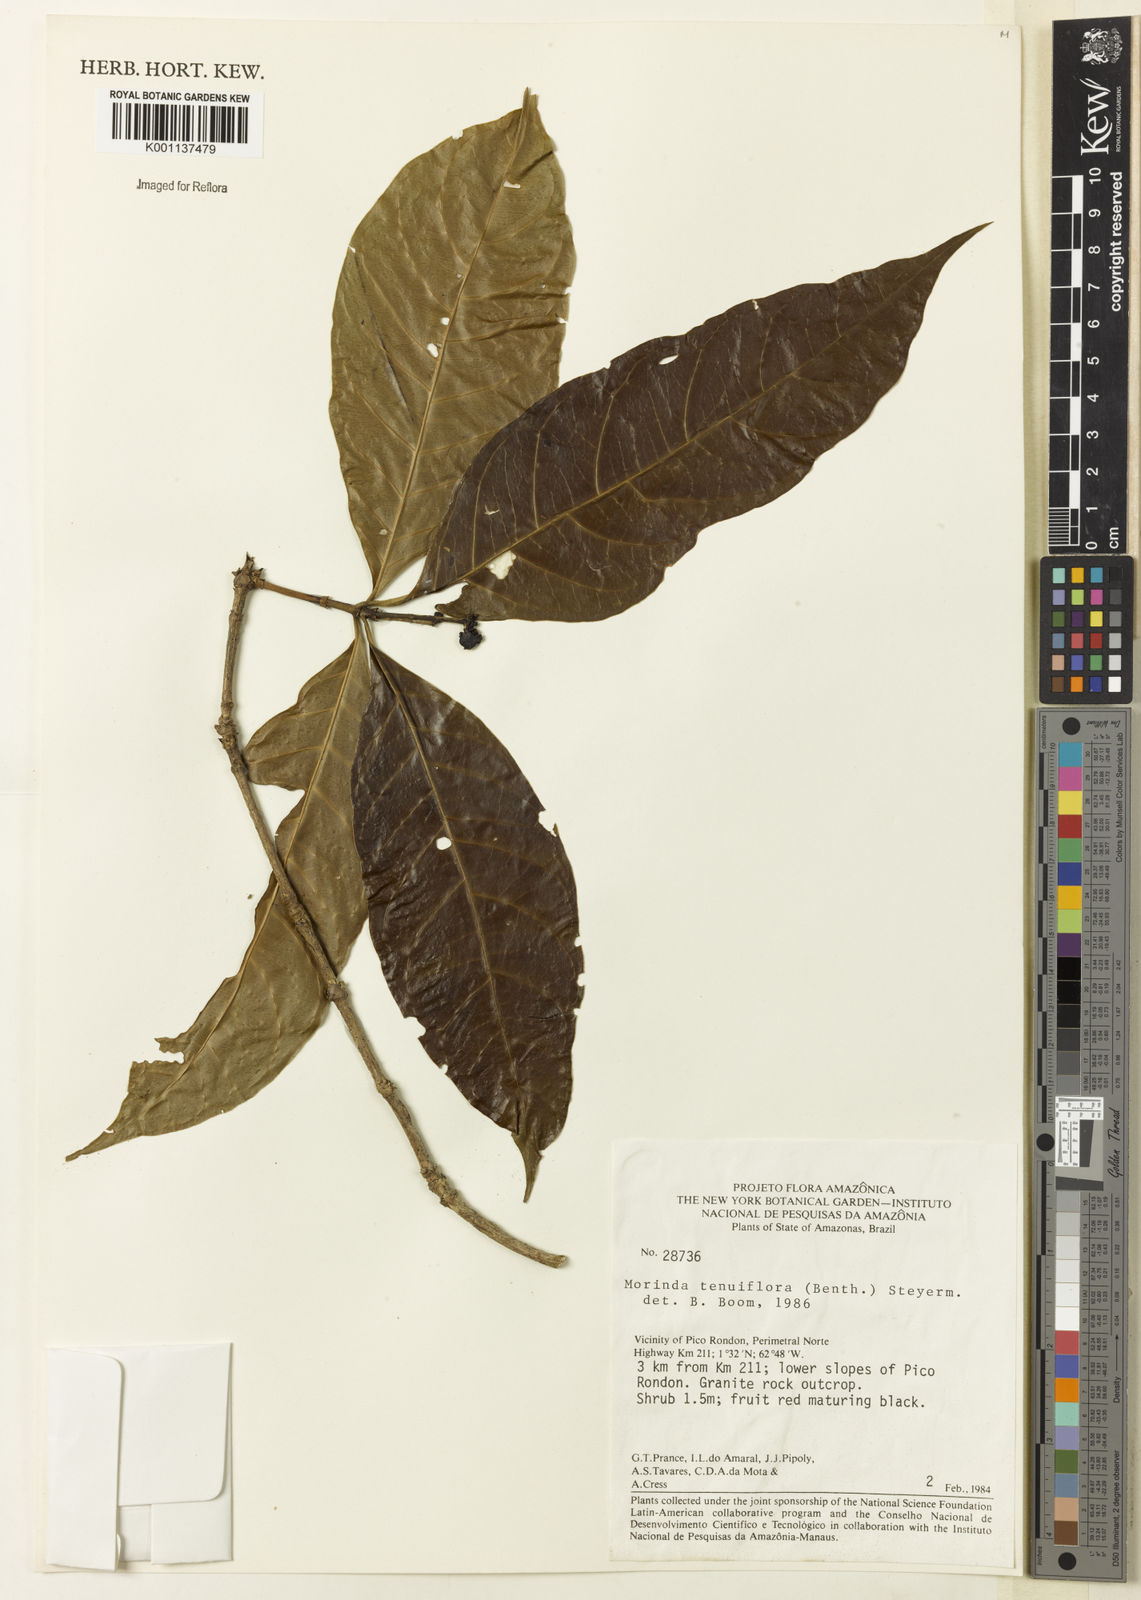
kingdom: Plantae
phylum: Tracheophyta
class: Magnoliopsida
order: Gentianales
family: Rubiaceae
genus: Appunia
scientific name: Appunia tenuiflora
